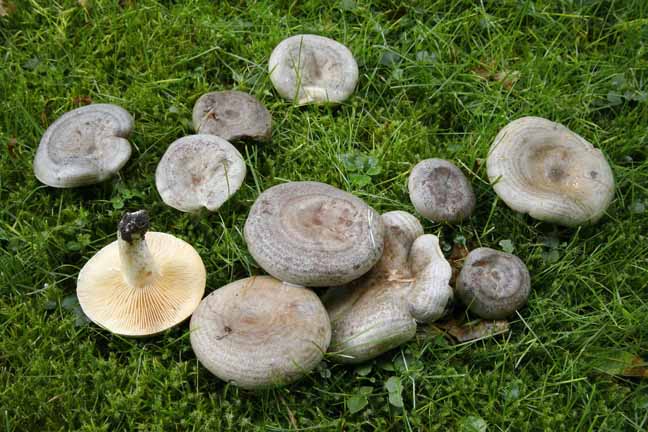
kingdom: Fungi
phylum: Basidiomycota
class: Agaricomycetes
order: Russulales
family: Russulaceae
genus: Lactarius
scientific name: Lactarius circellatus
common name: avnbøg-mælkehat
